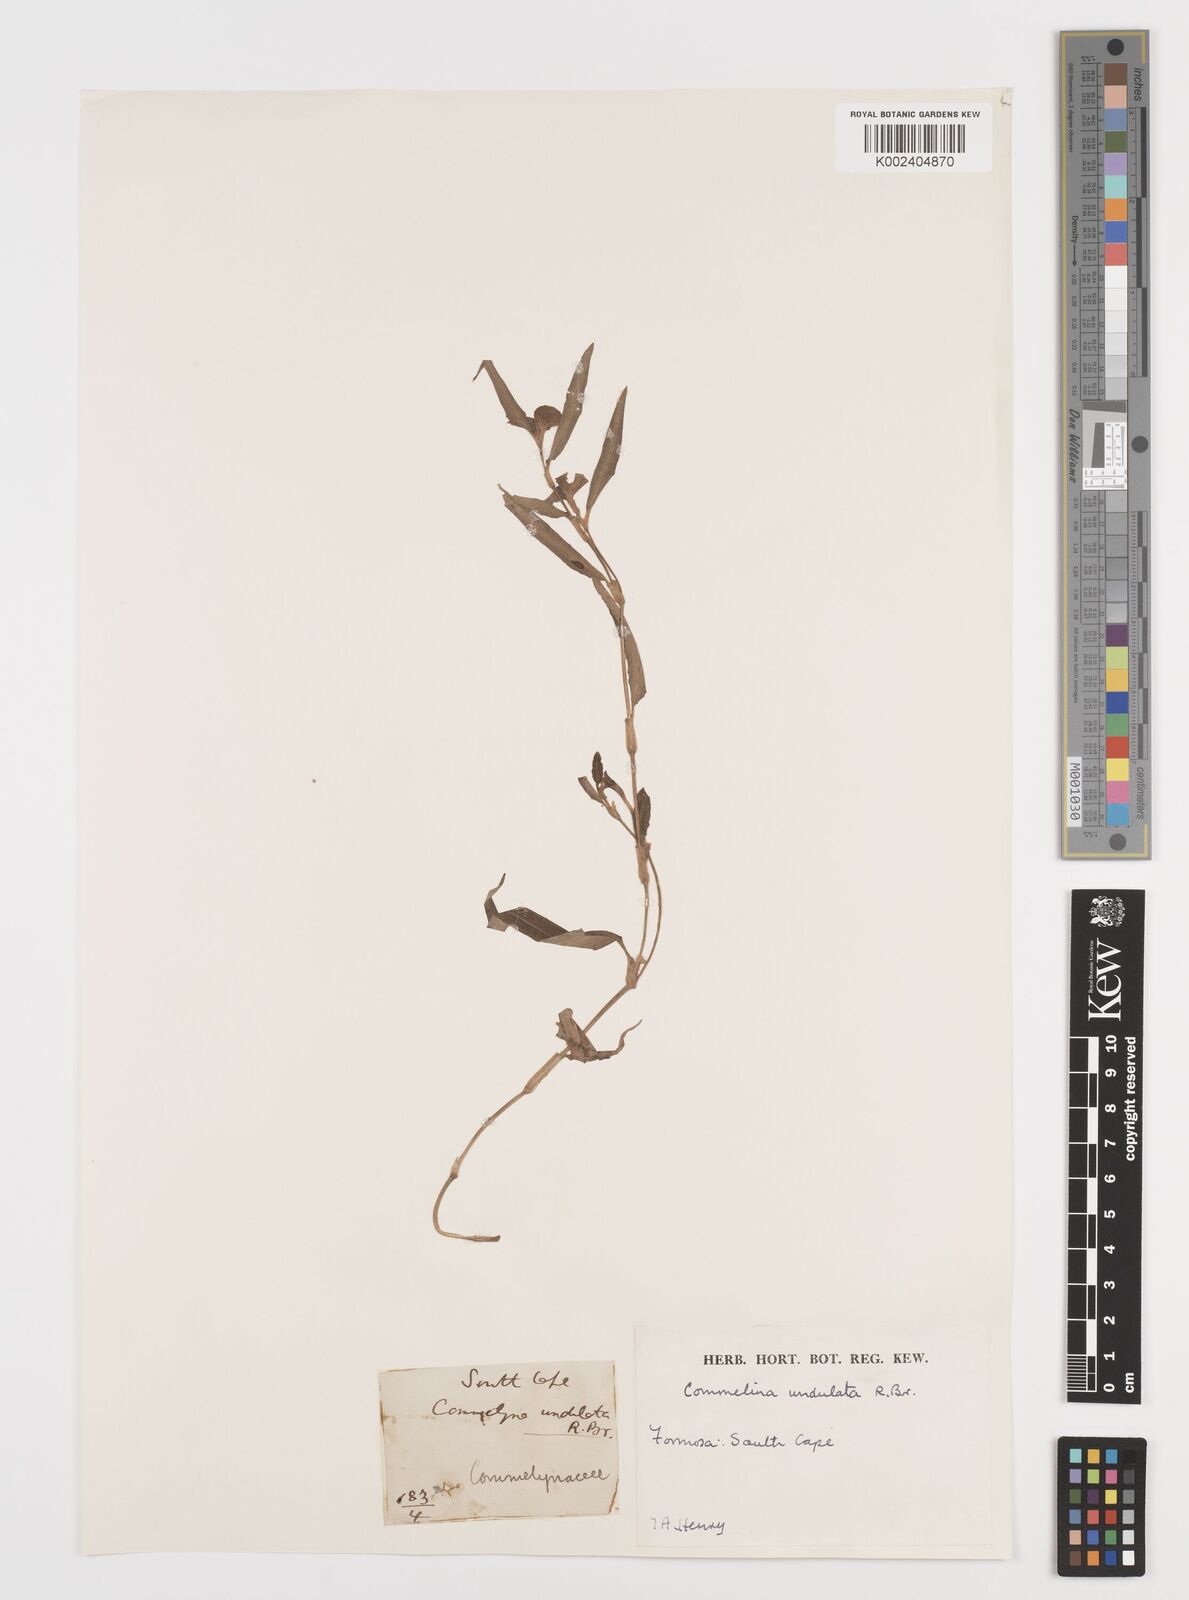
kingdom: Plantae
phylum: Tracheophyta
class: Liliopsida
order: Commelinales
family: Commelinaceae
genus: Commelina
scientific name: Commelina undulata
